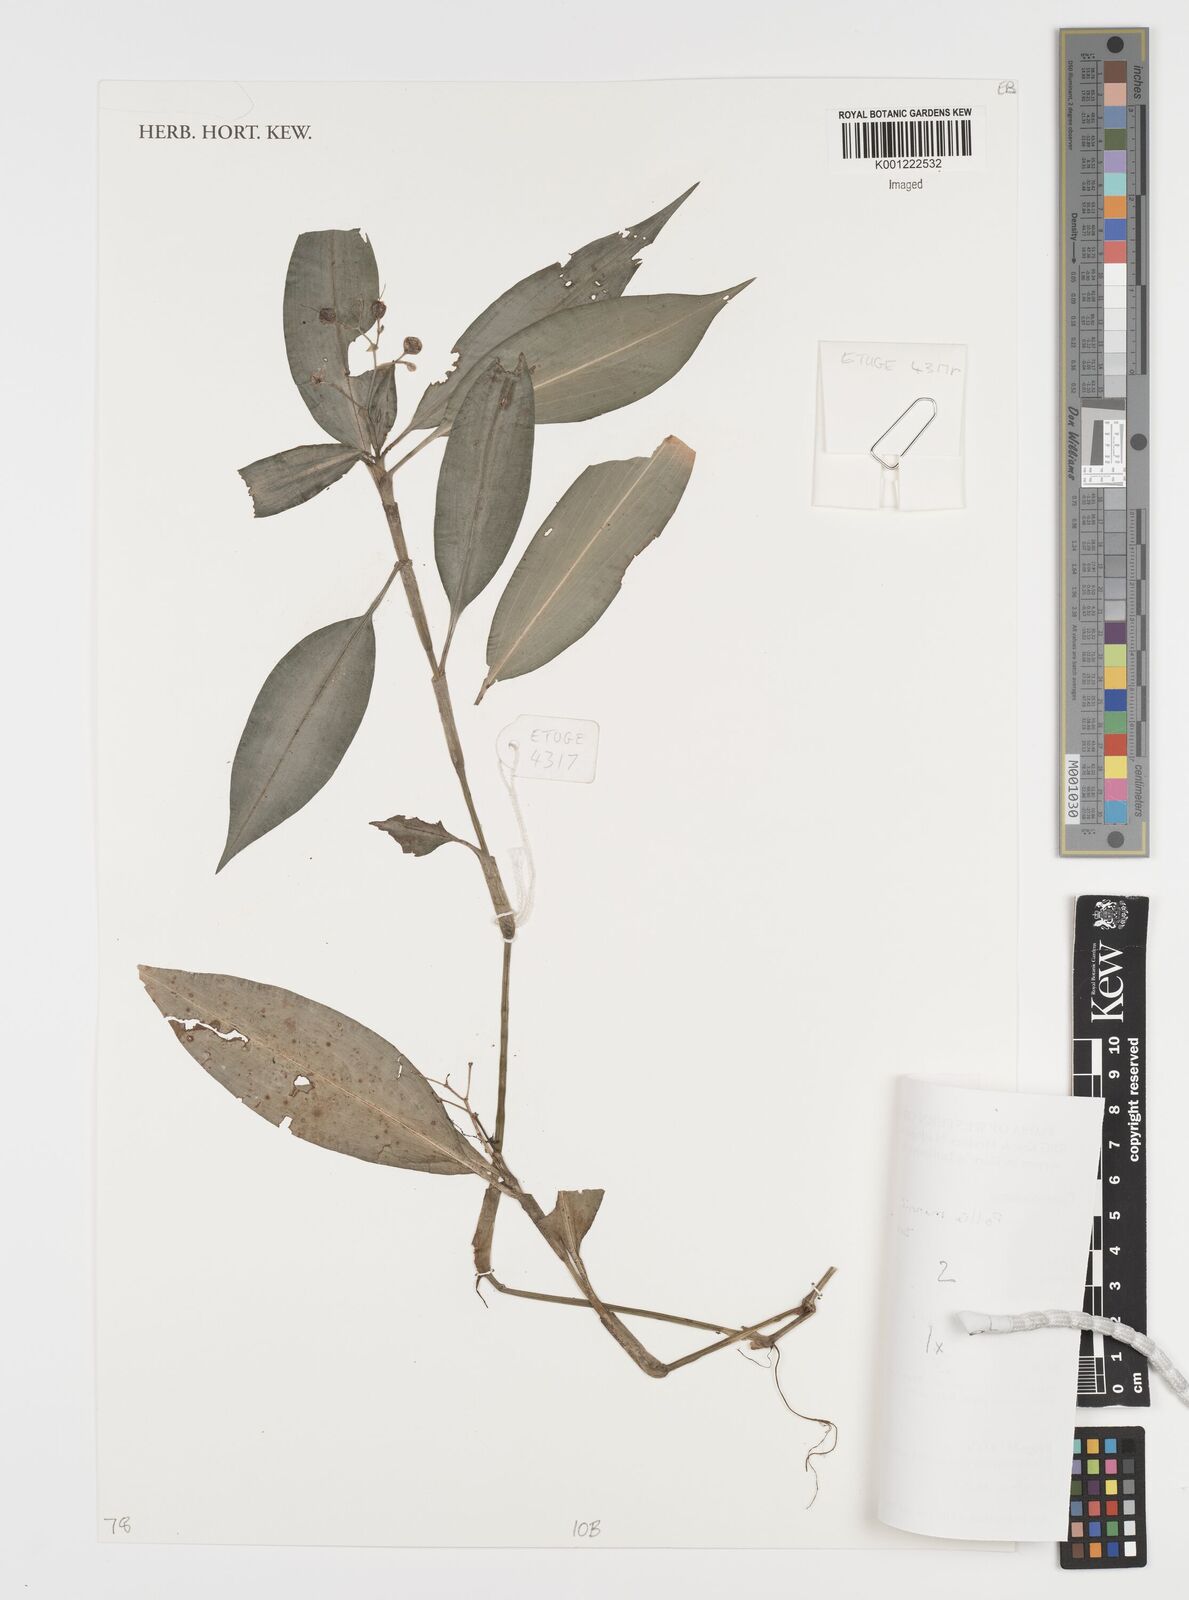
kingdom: Plantae
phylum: Tracheophyta
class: Liliopsida
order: Commelinales
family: Commelinaceae
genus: Pollia
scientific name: Pollia mannii
